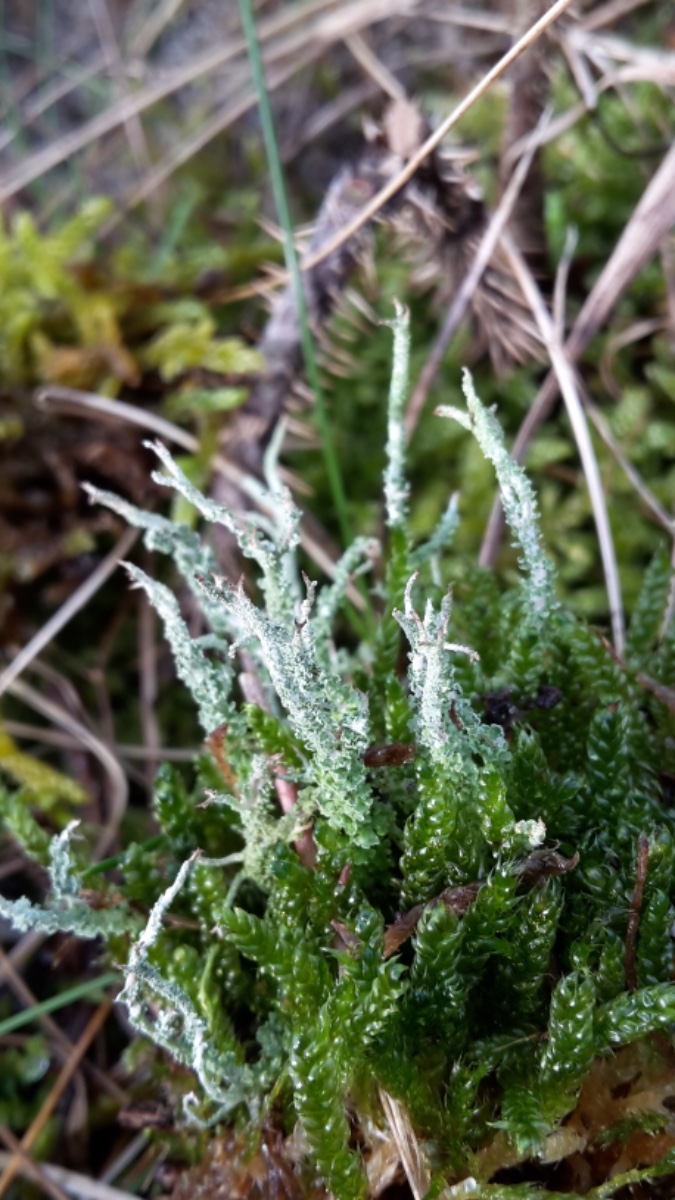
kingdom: Fungi
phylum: Ascomycota
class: Lecanoromycetes
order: Lecanorales
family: Cladoniaceae
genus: Cladonia
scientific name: Cladonia scabriuscula
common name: ru bægerlav
